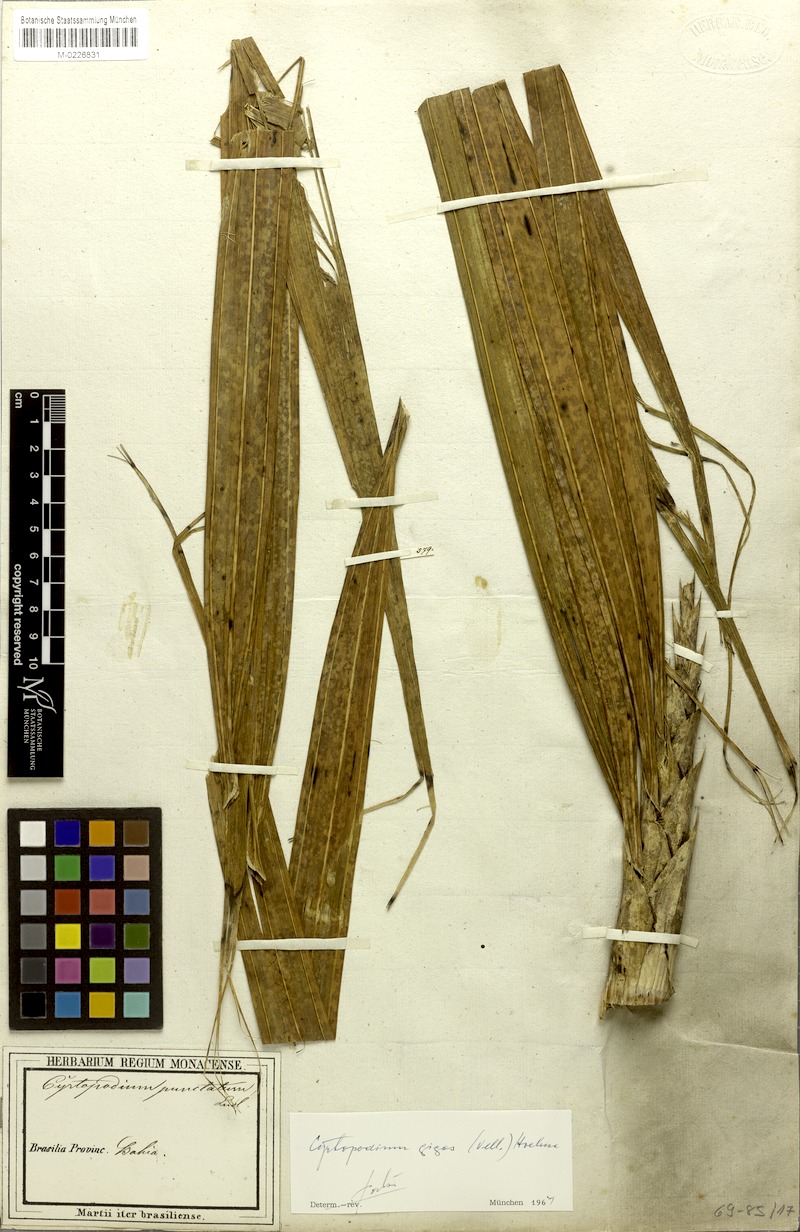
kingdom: Plantae
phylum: Tracheophyta
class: Liliopsida
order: Asparagales
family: Orchidaceae
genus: Cyrtopodium
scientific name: Cyrtopodium gigas
